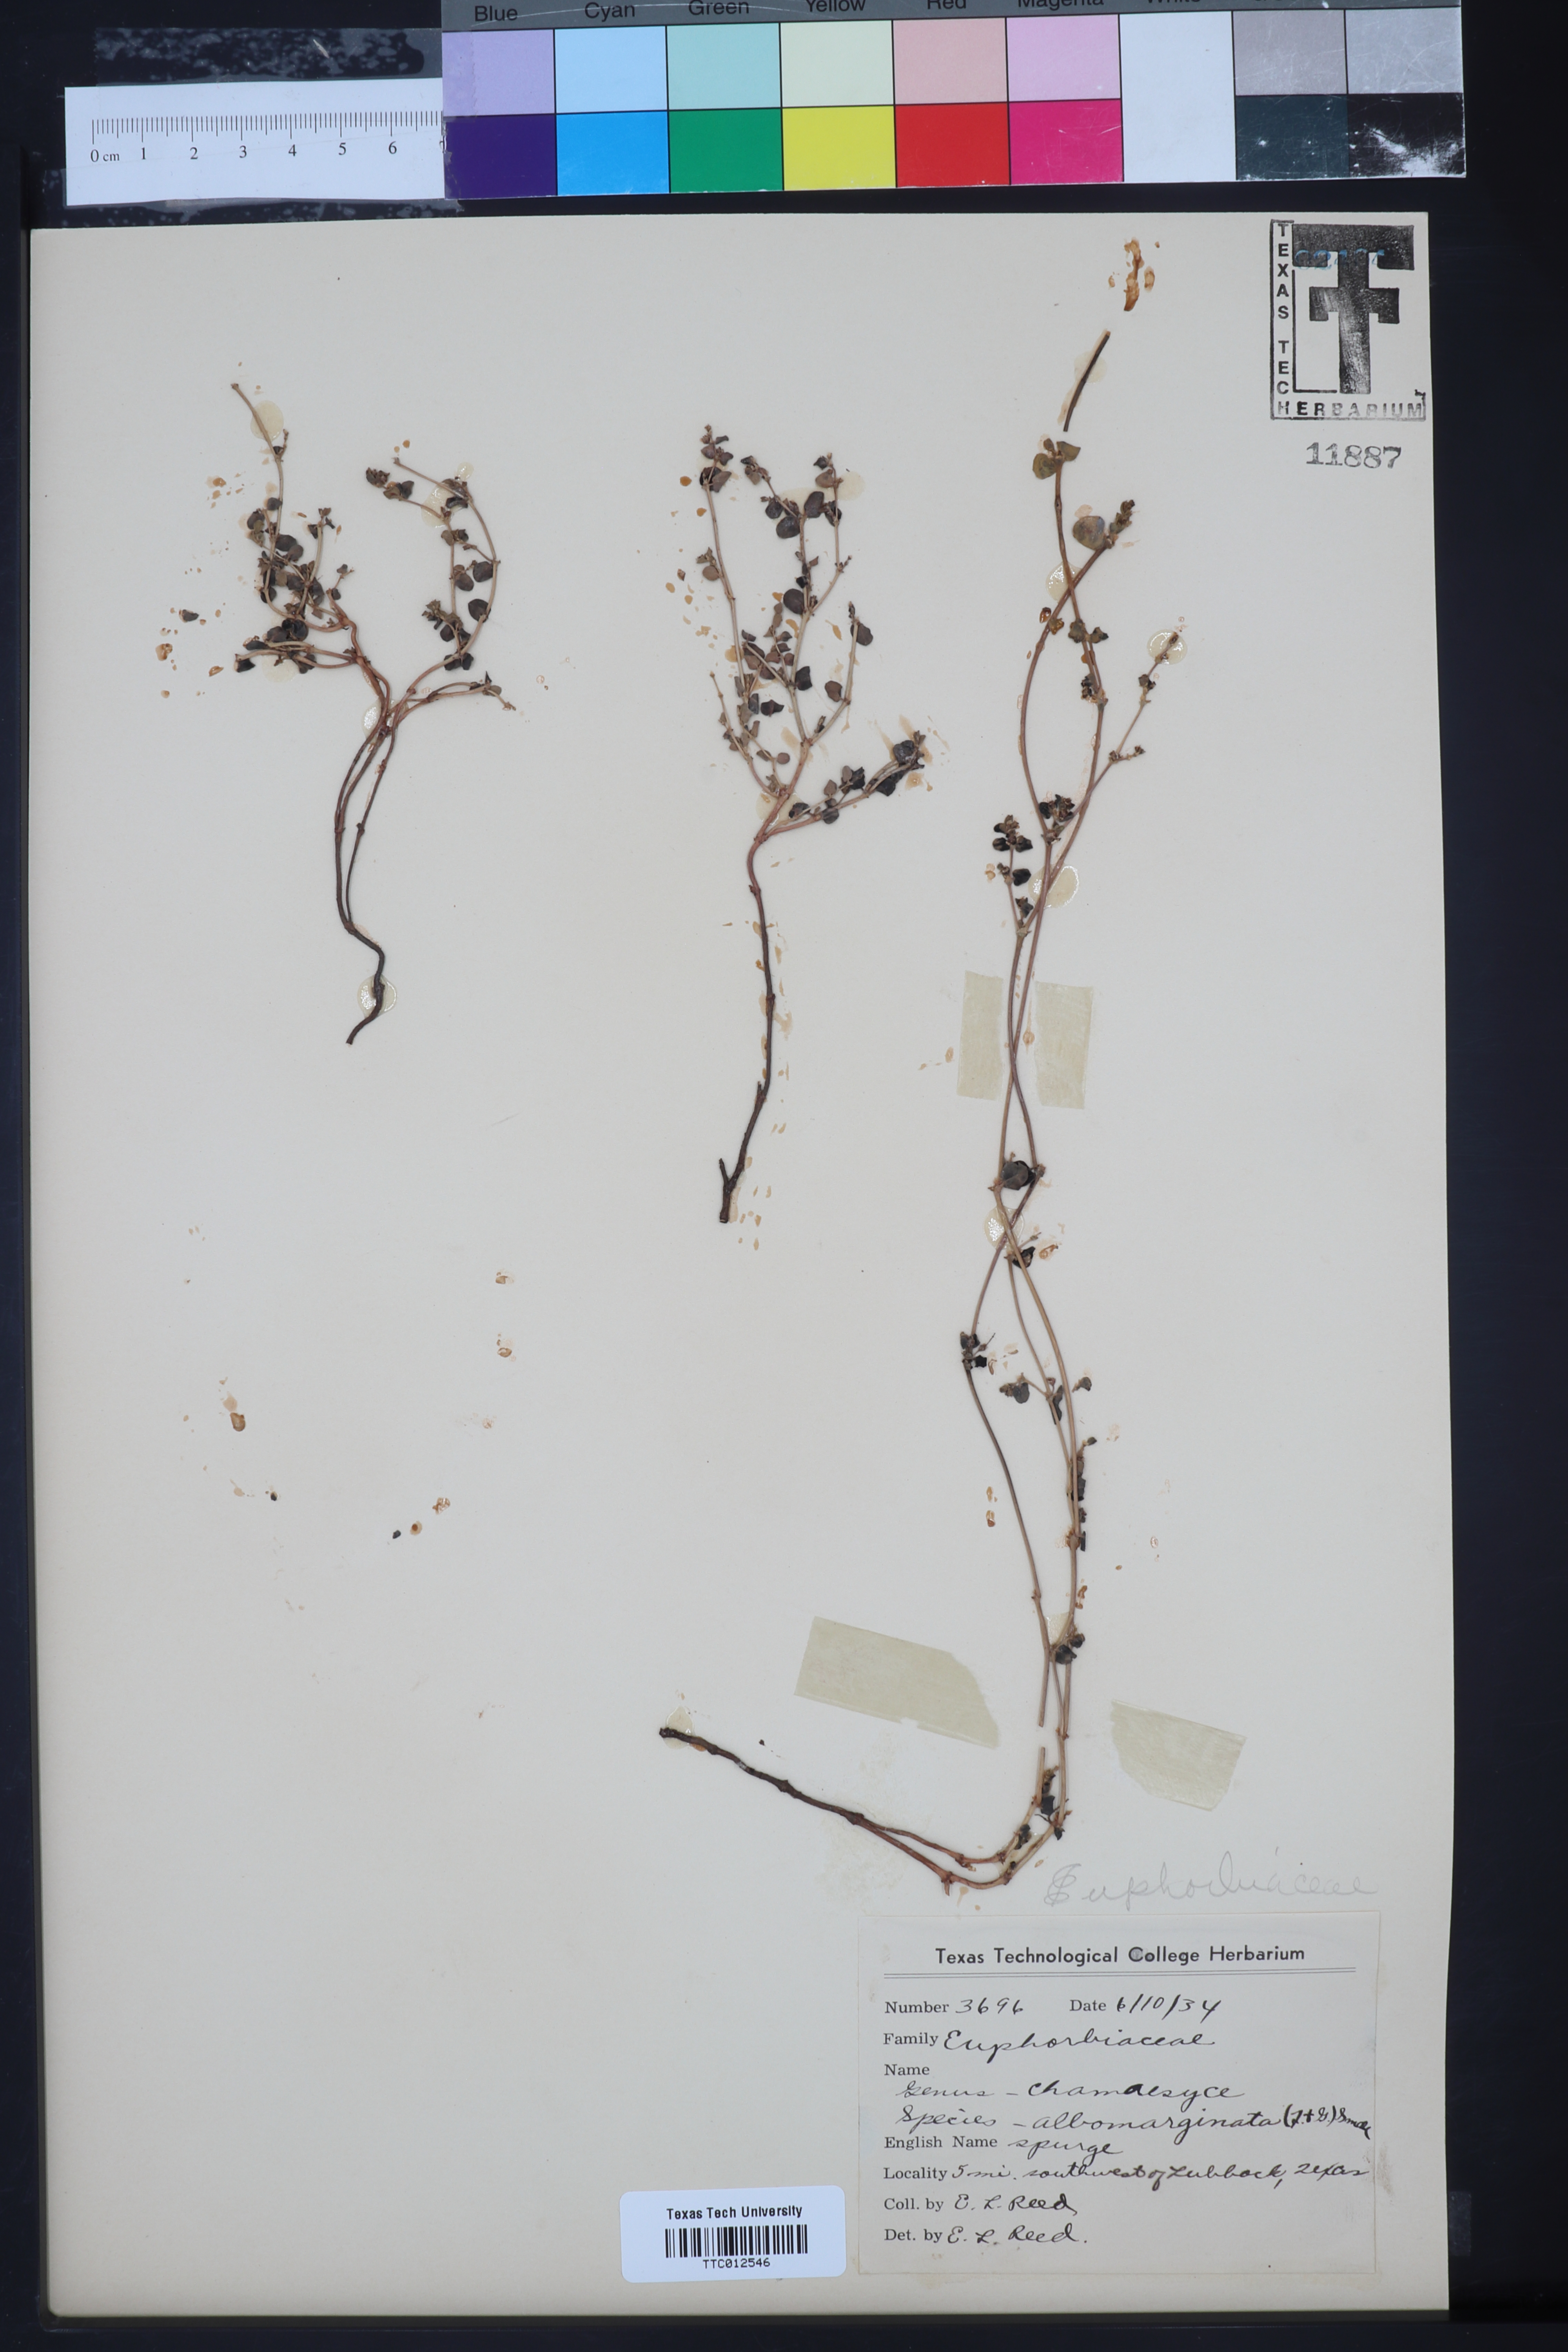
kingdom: Plantae
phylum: Tracheophyta
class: Magnoliopsida
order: Malpighiales
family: Euphorbiaceae
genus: Euphorbia
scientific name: Euphorbia albomarginata
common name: Whitemargin sandmat
